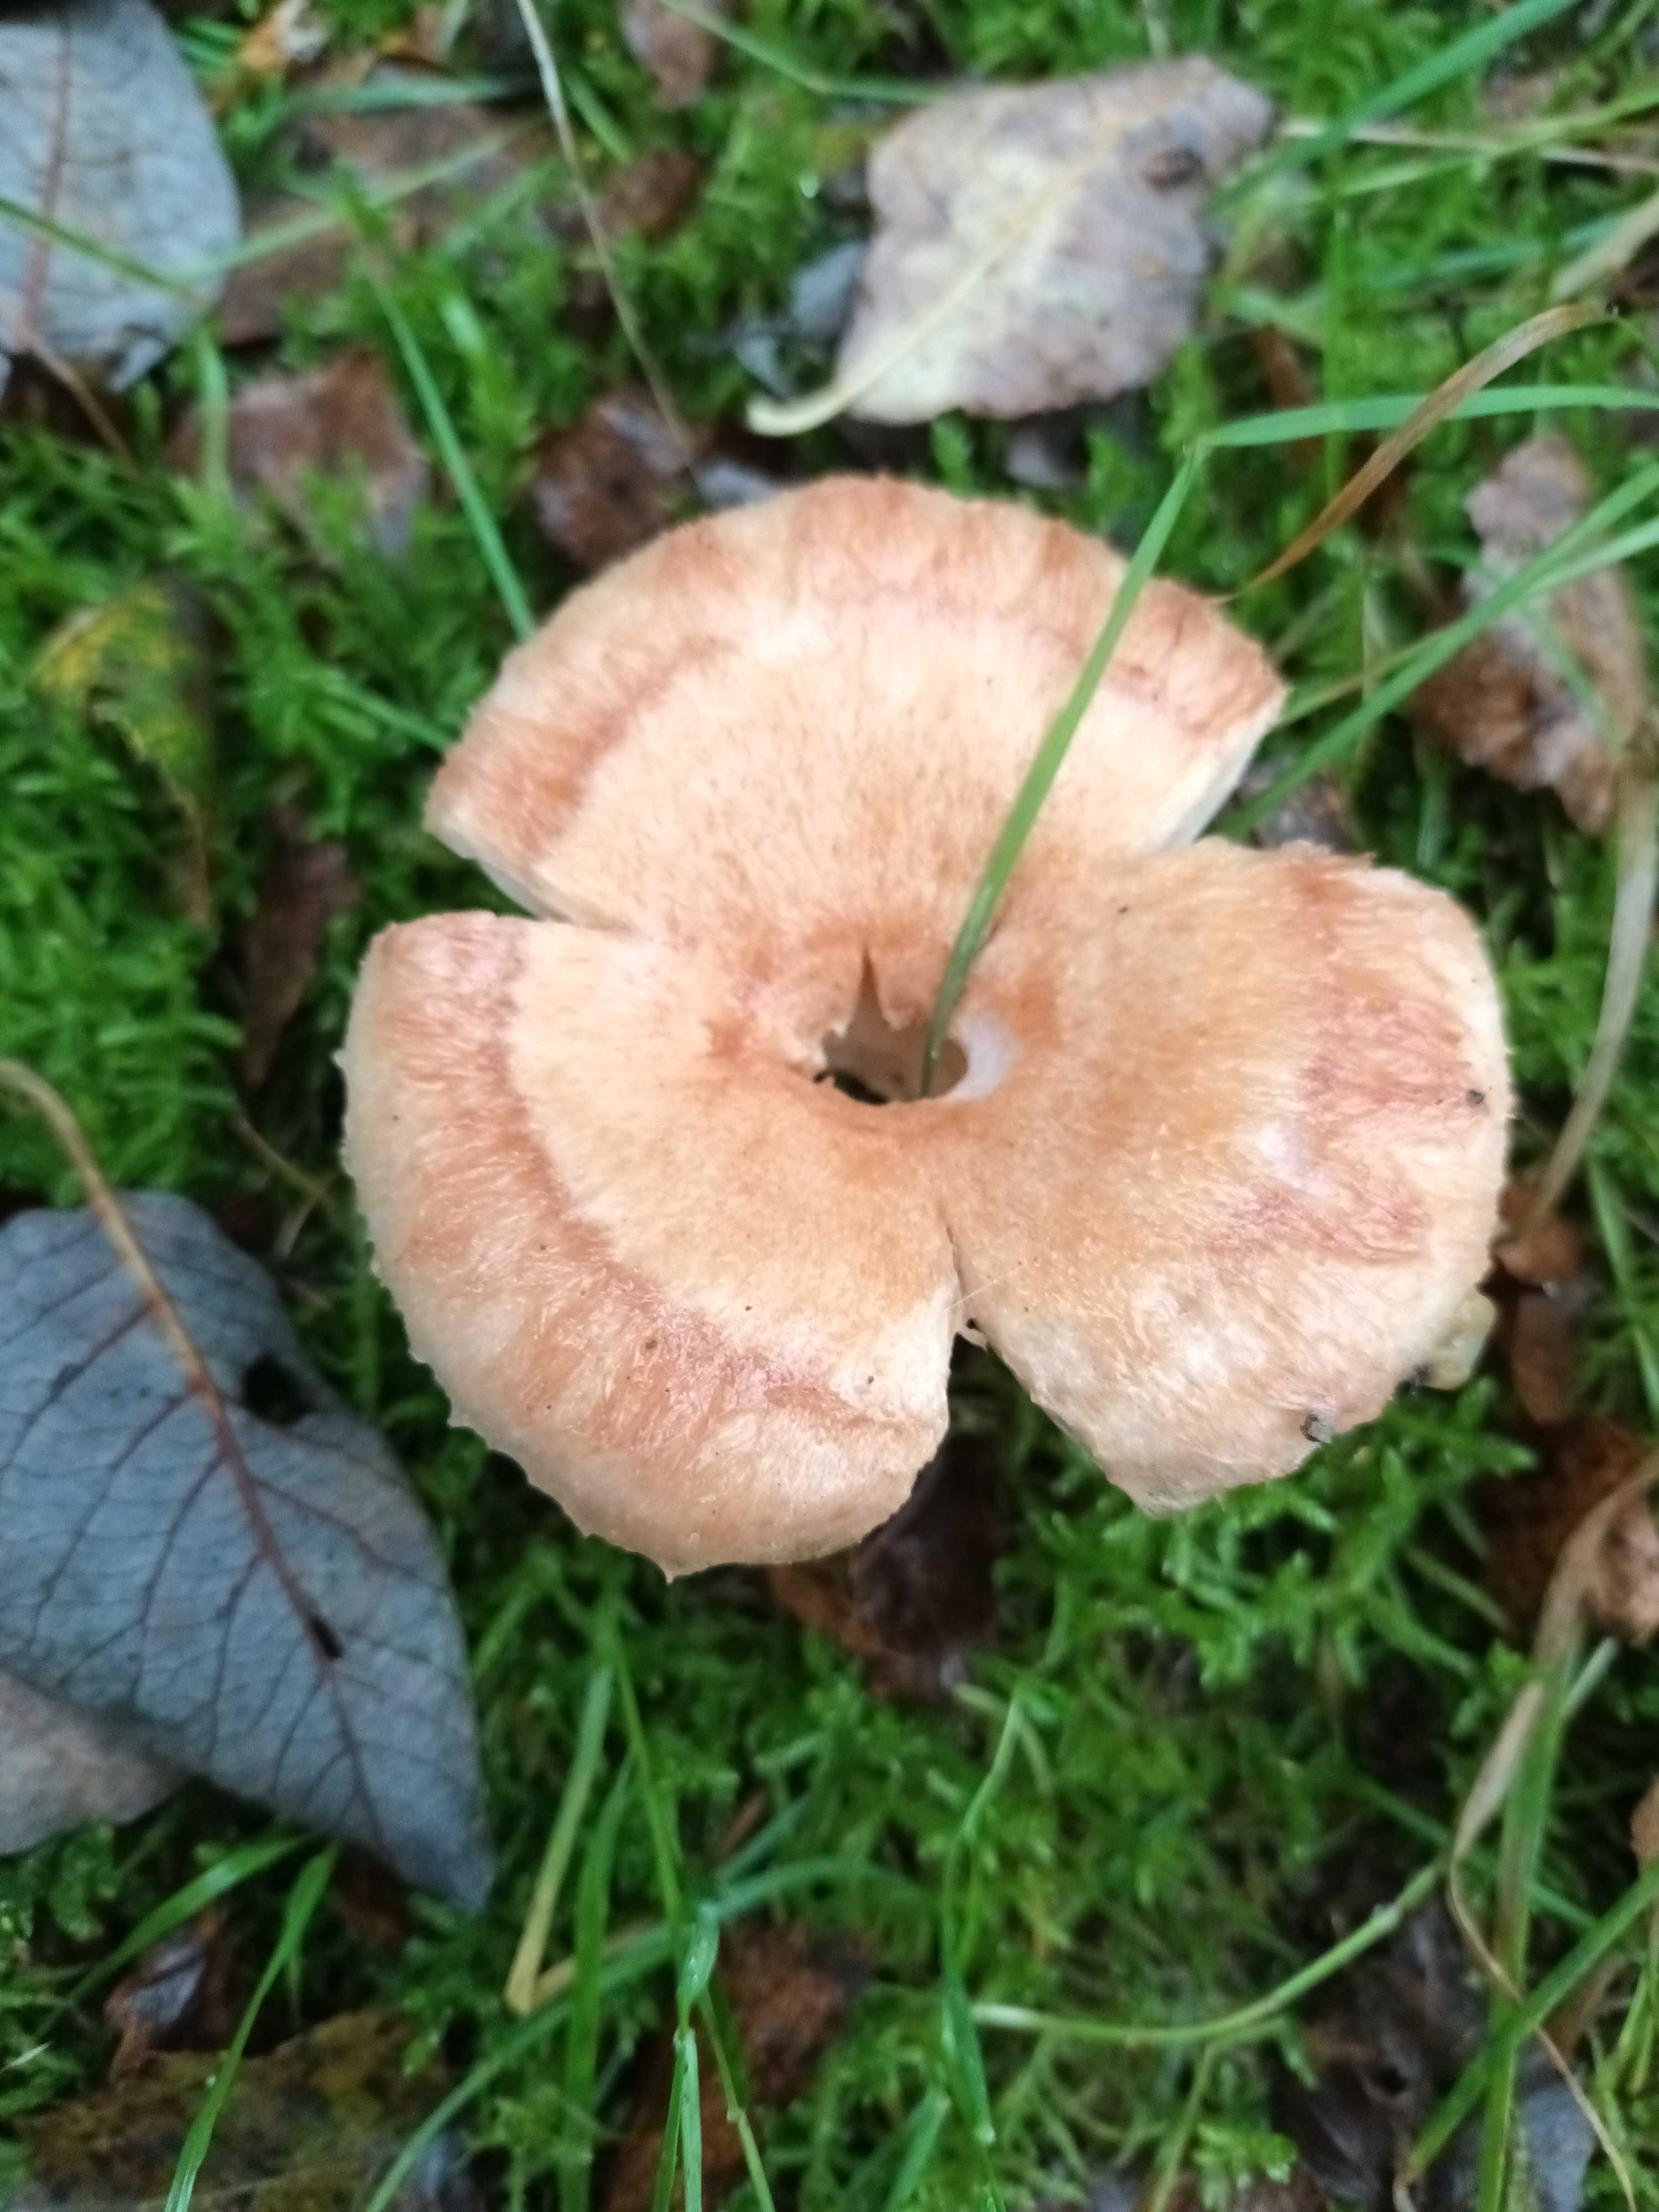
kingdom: Fungi
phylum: Basidiomycota
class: Agaricomycetes
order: Russulales
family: Russulaceae
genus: Lactarius
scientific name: Lactarius torminosus
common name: skægget mælkehat
